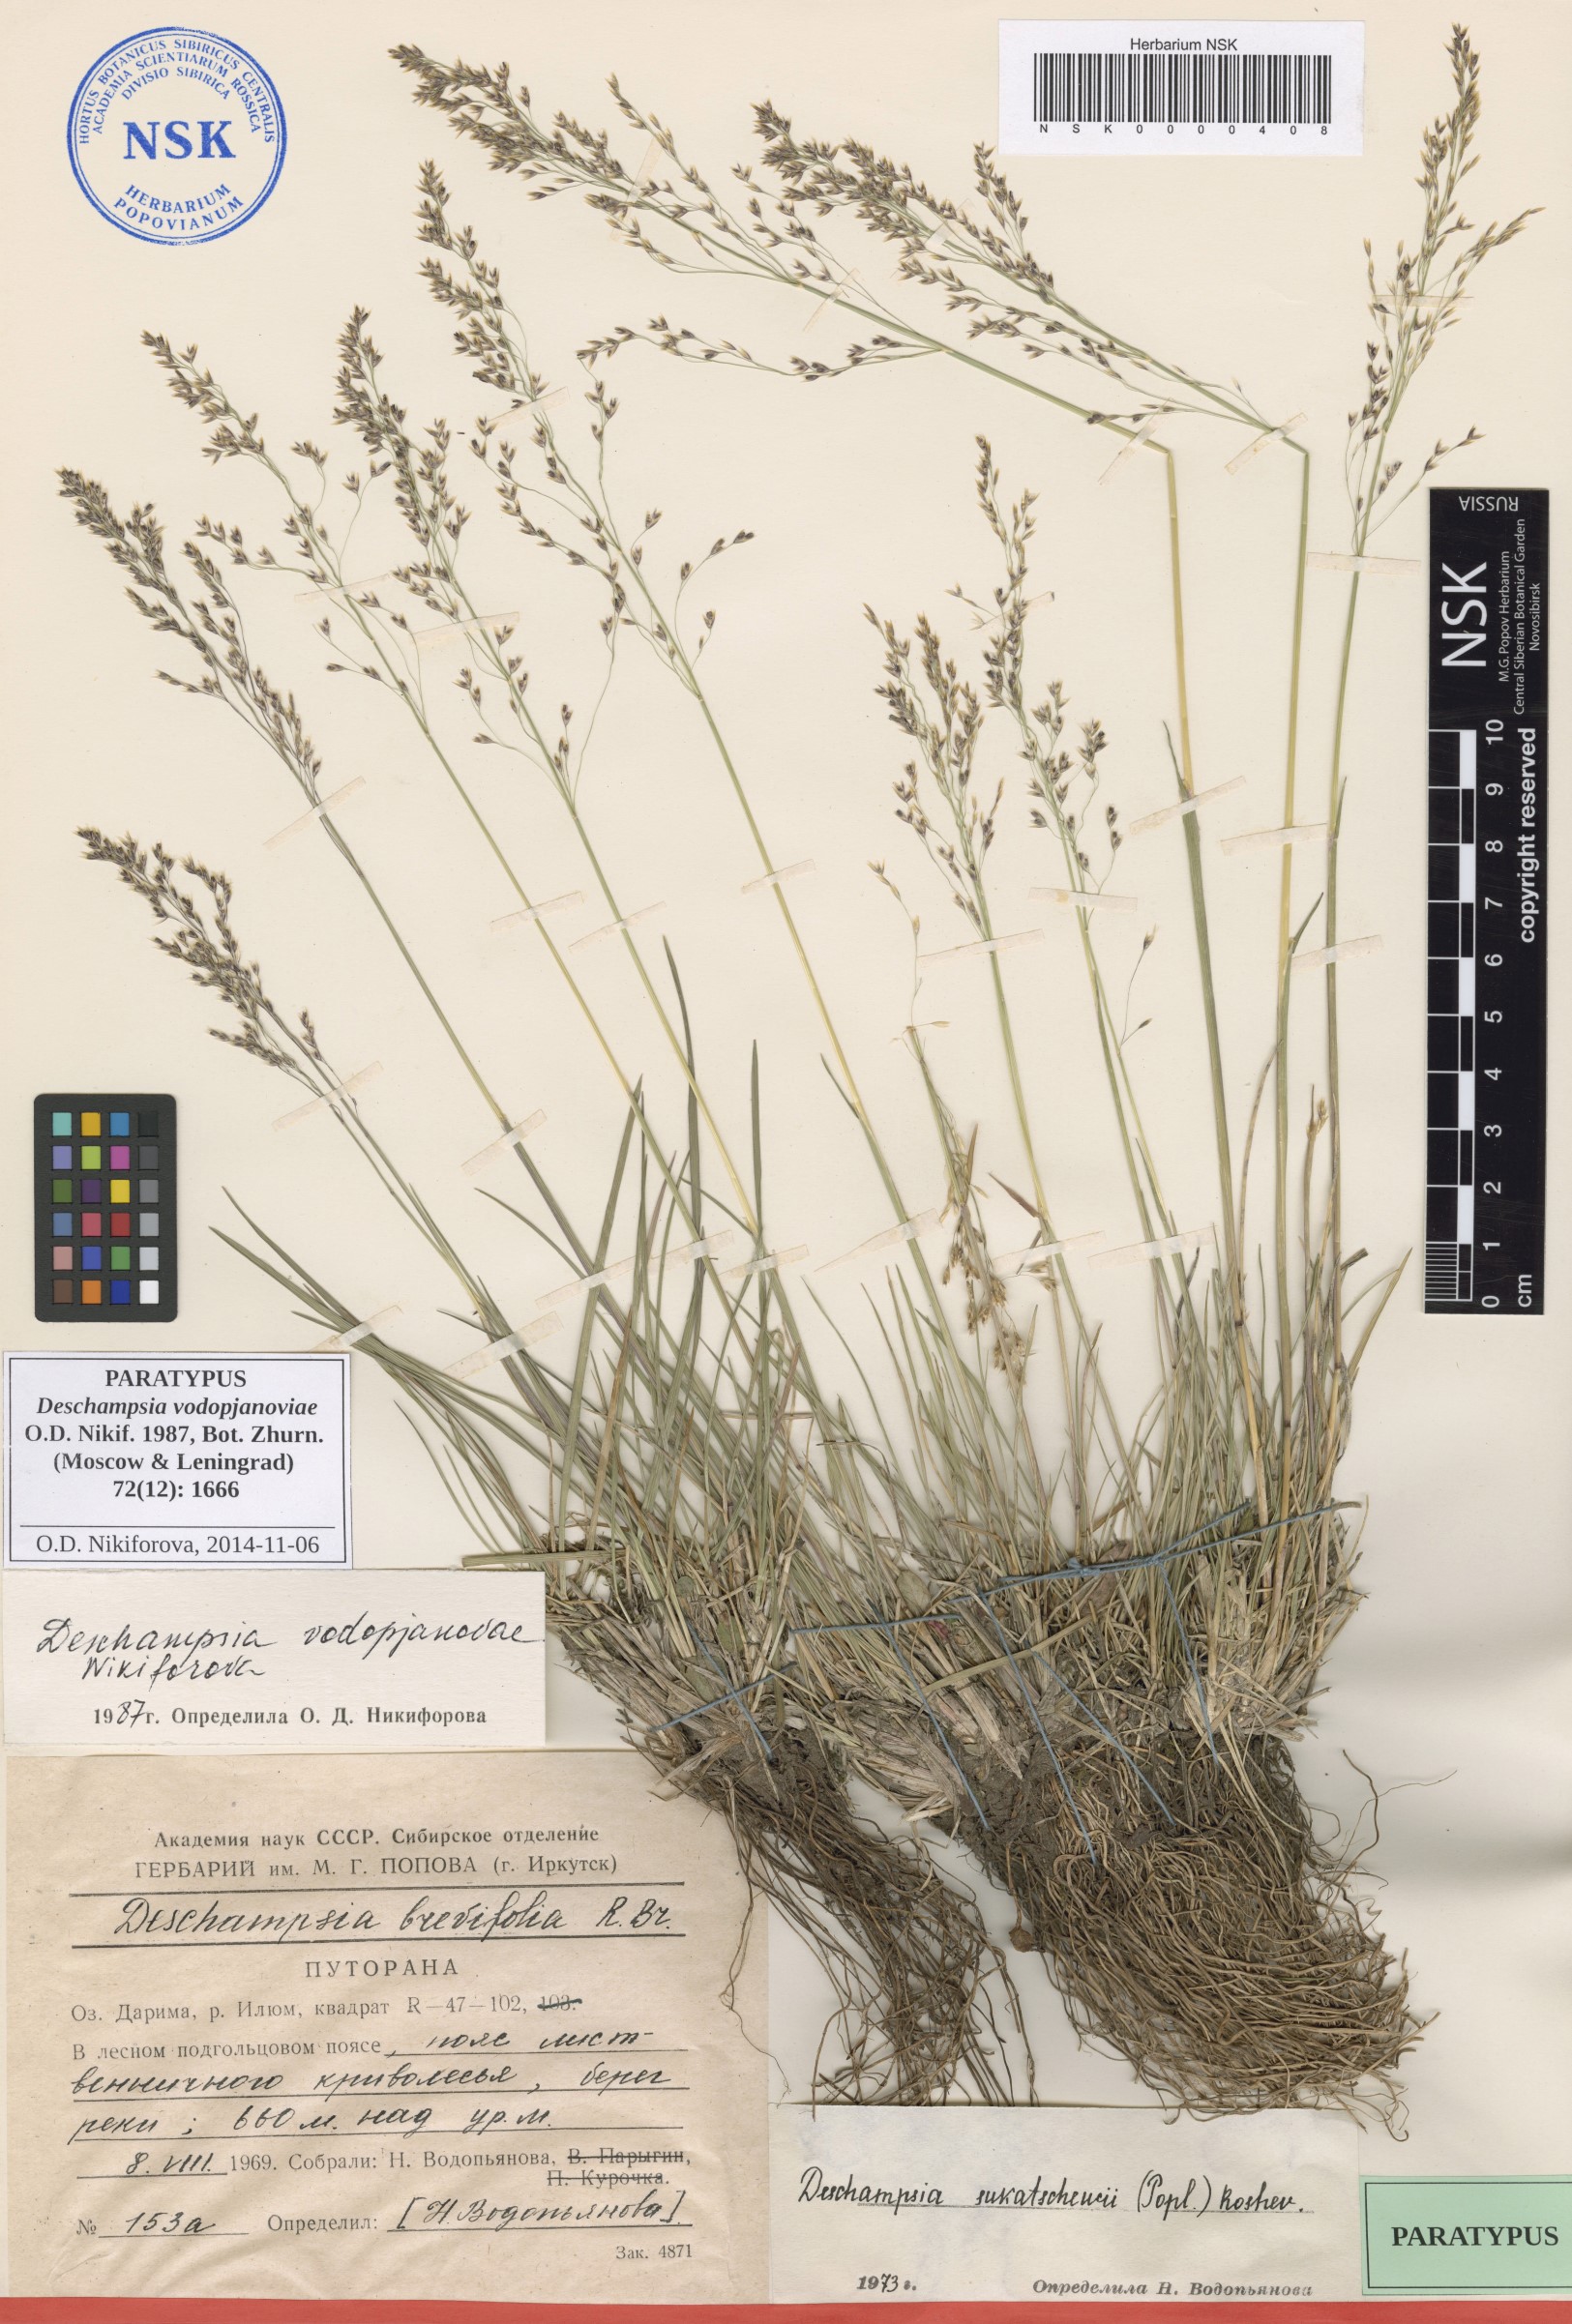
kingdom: Plantae
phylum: Tracheophyta
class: Liliopsida
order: Poales
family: Poaceae
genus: Deschampsia
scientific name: Deschampsia cespitosa
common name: Tufted hair-grass
